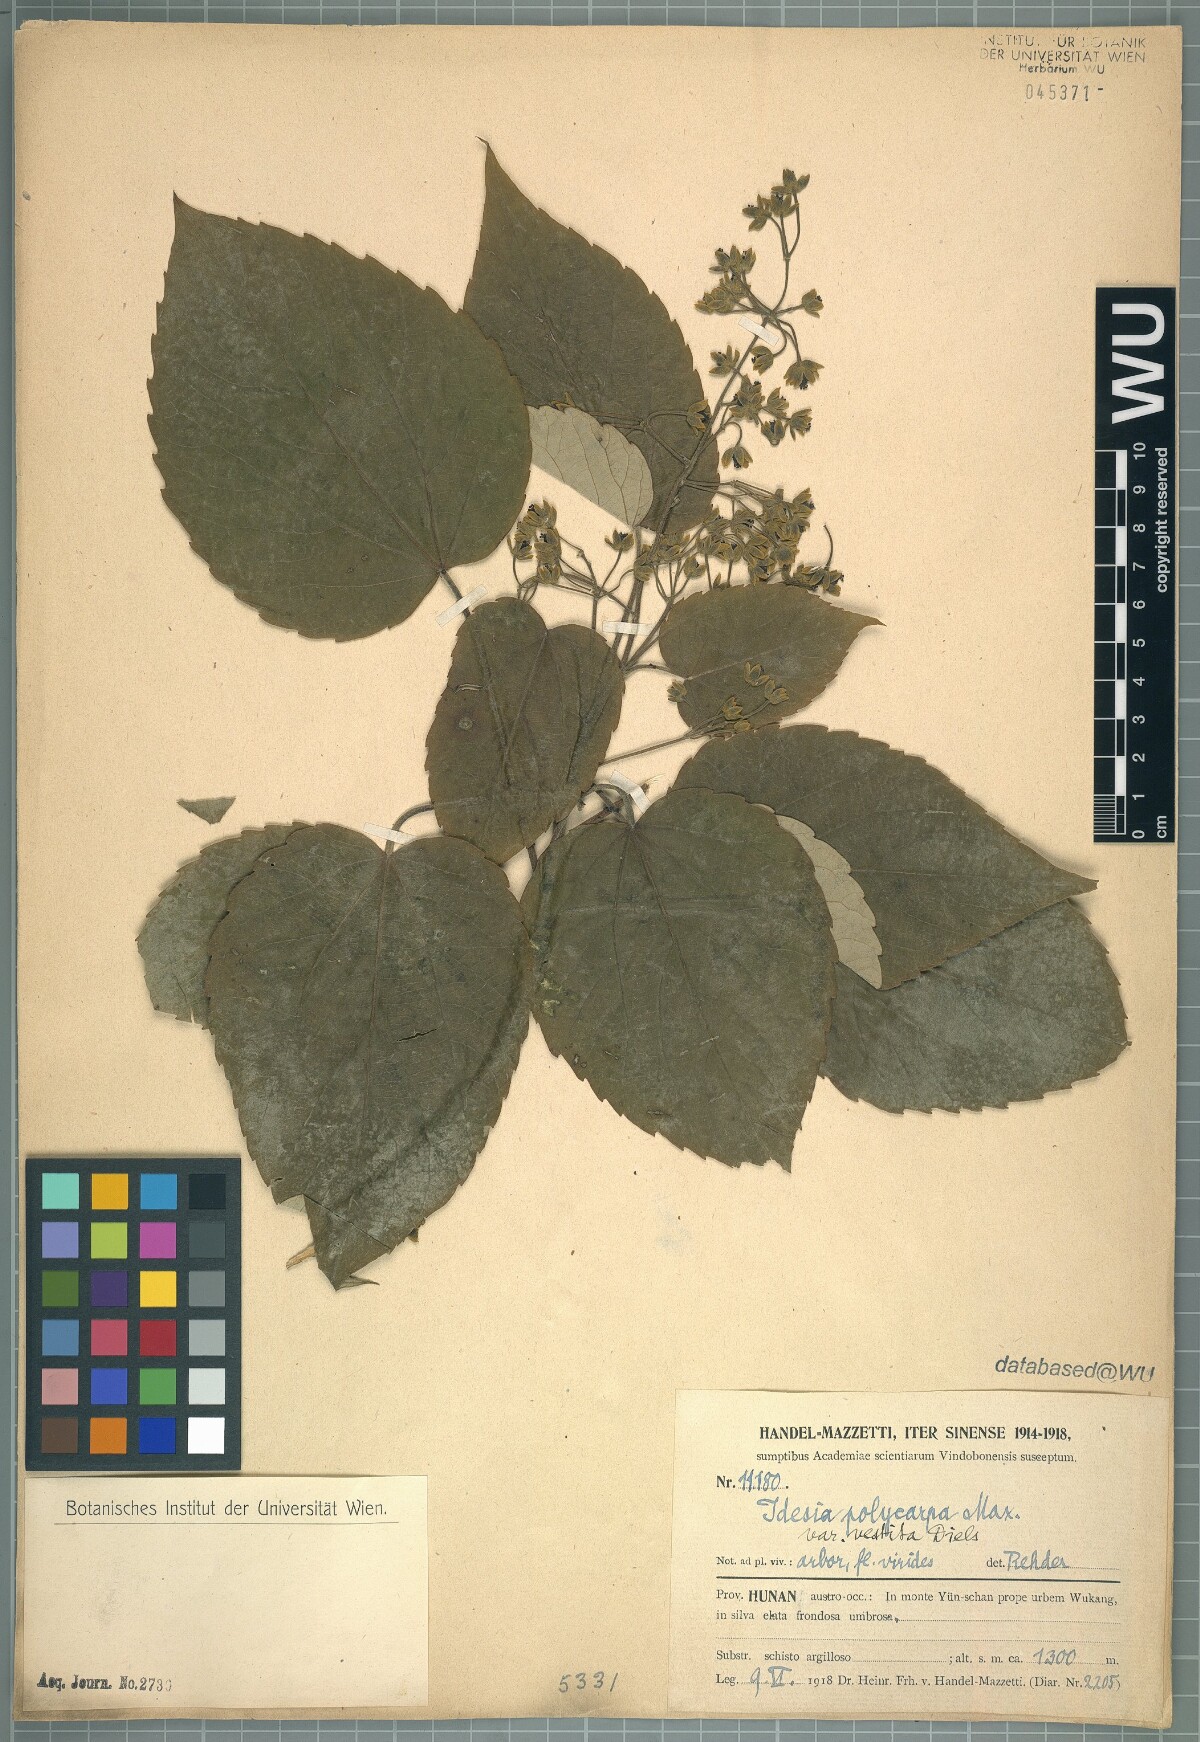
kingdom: Plantae
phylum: Tracheophyta
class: Magnoliopsida
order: Malpighiales
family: Salicaceae
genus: Idesia
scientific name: Idesia polycarpa
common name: Idesia tree
